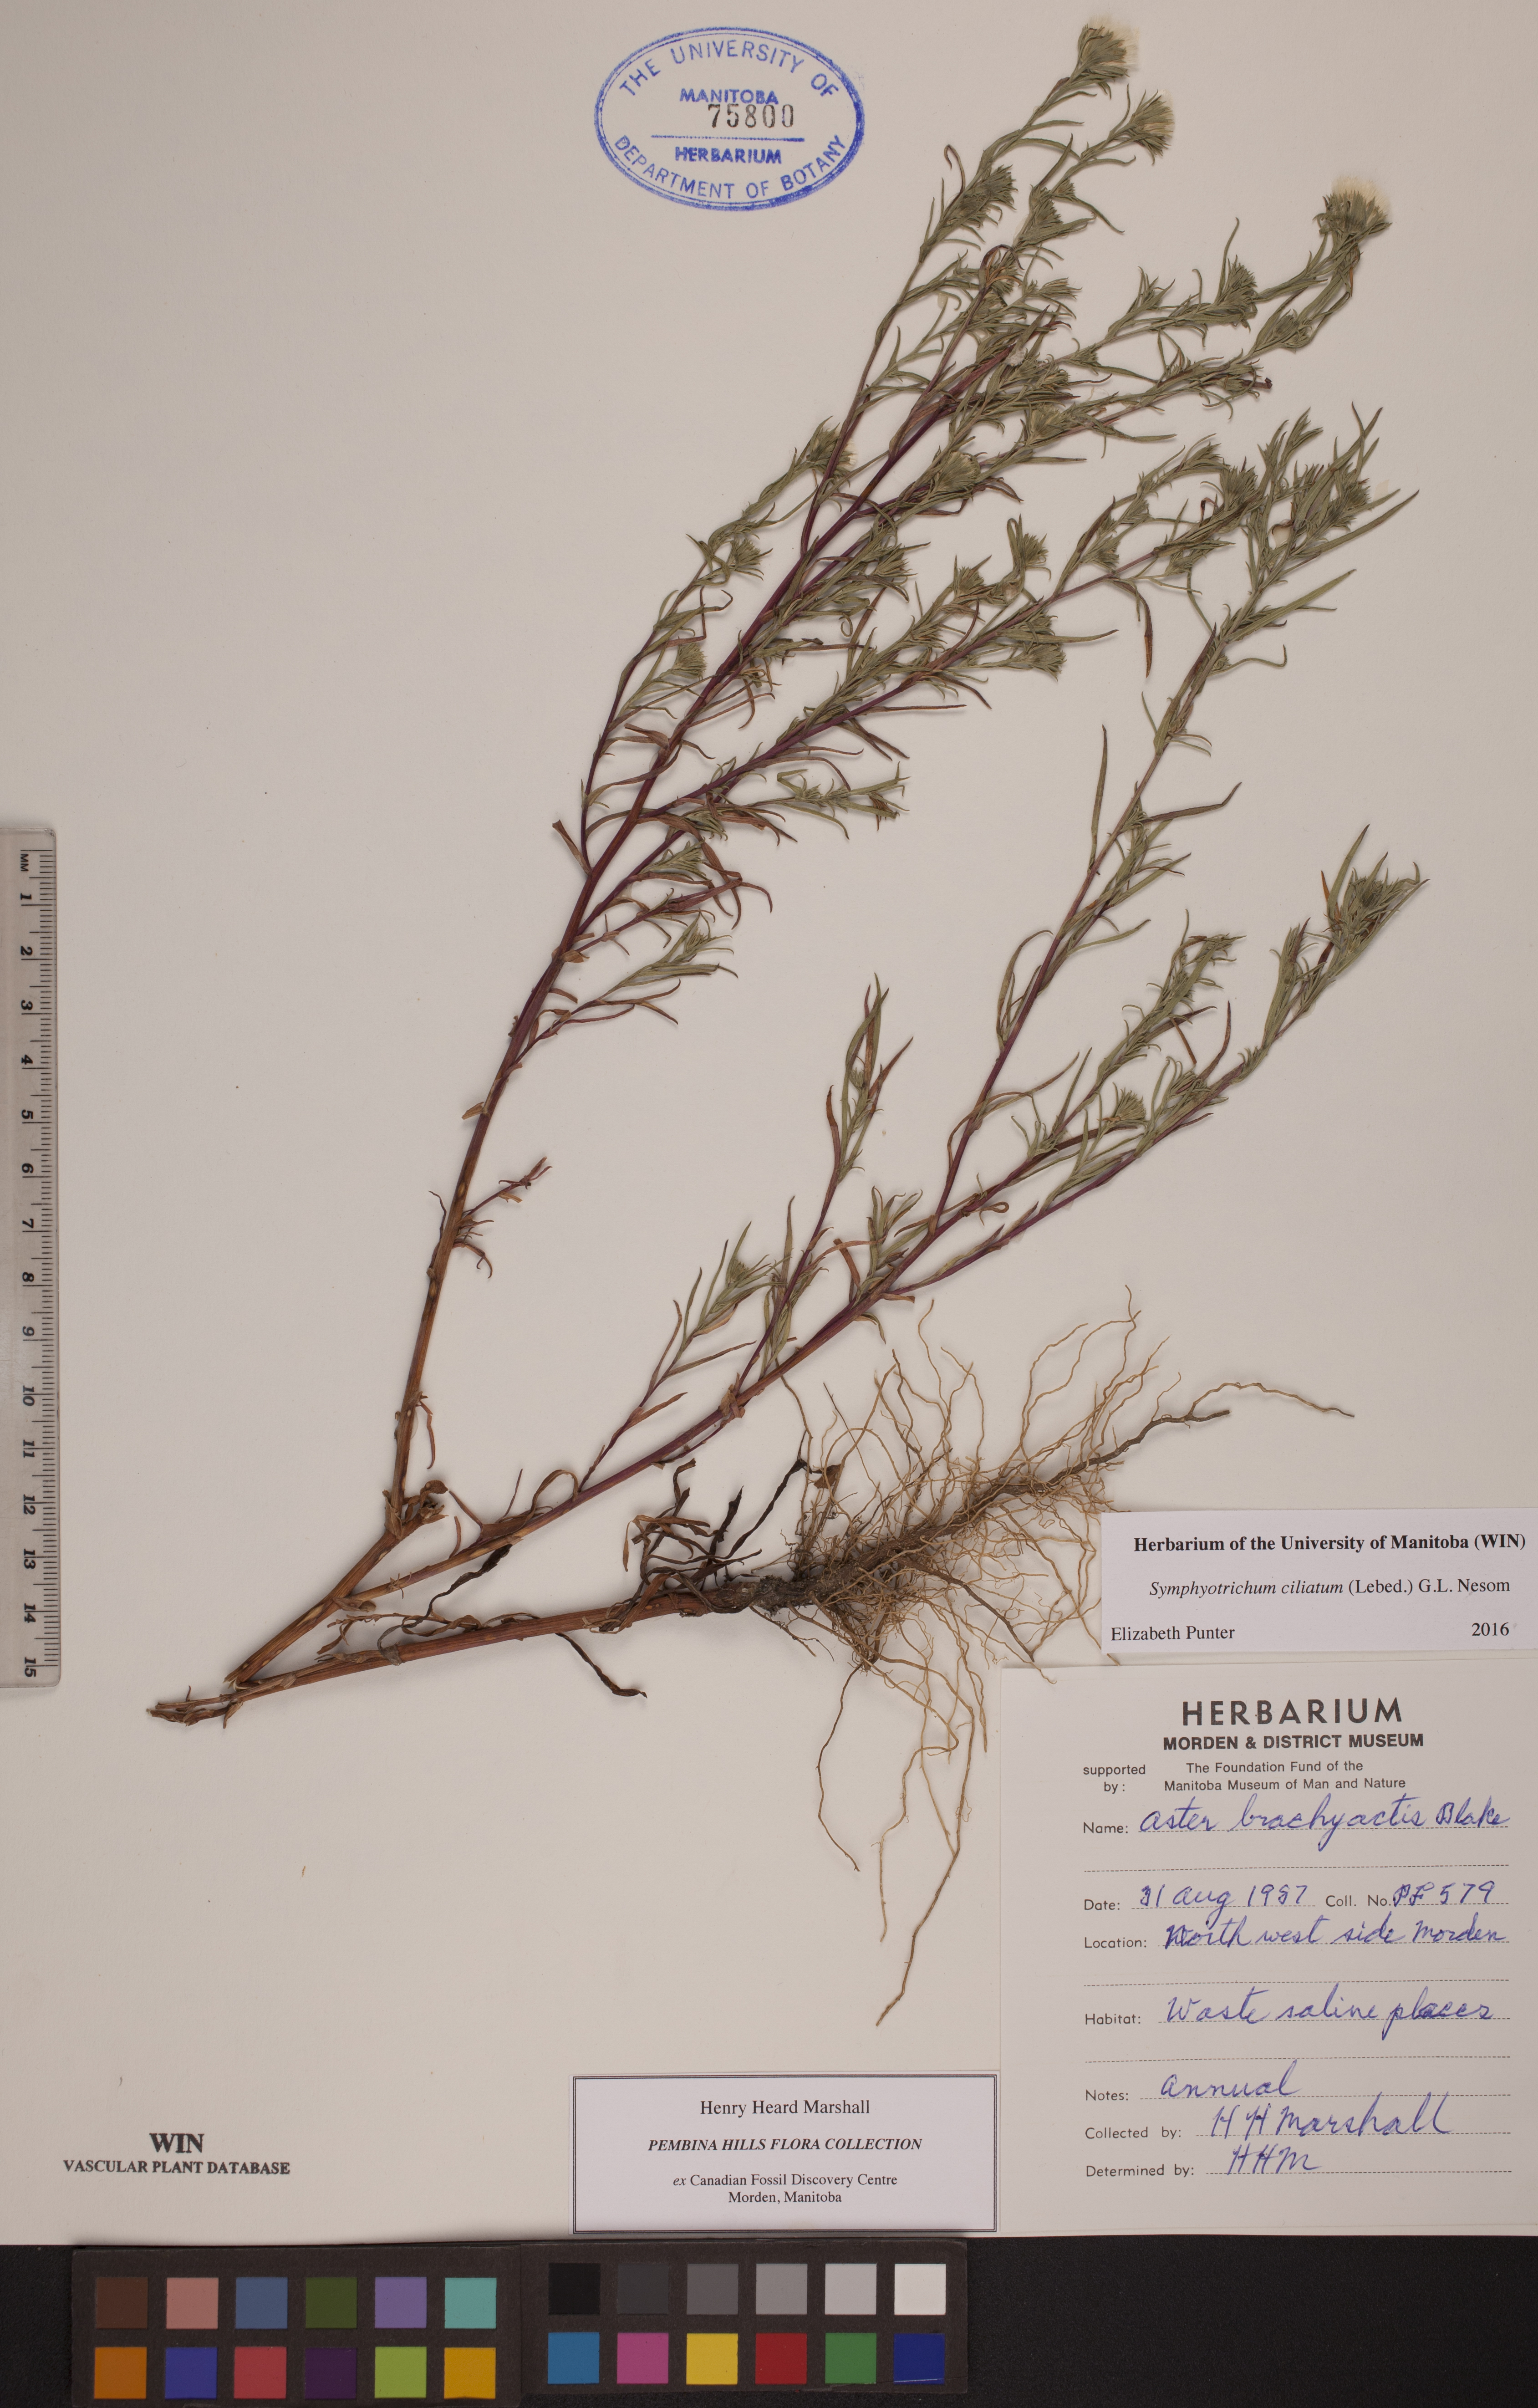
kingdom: Plantae
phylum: Tracheophyta
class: Magnoliopsida
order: Asterales
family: Asteraceae
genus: Symphyotrichum
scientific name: Symphyotrichum ciliatum
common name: Rayless annual aster
